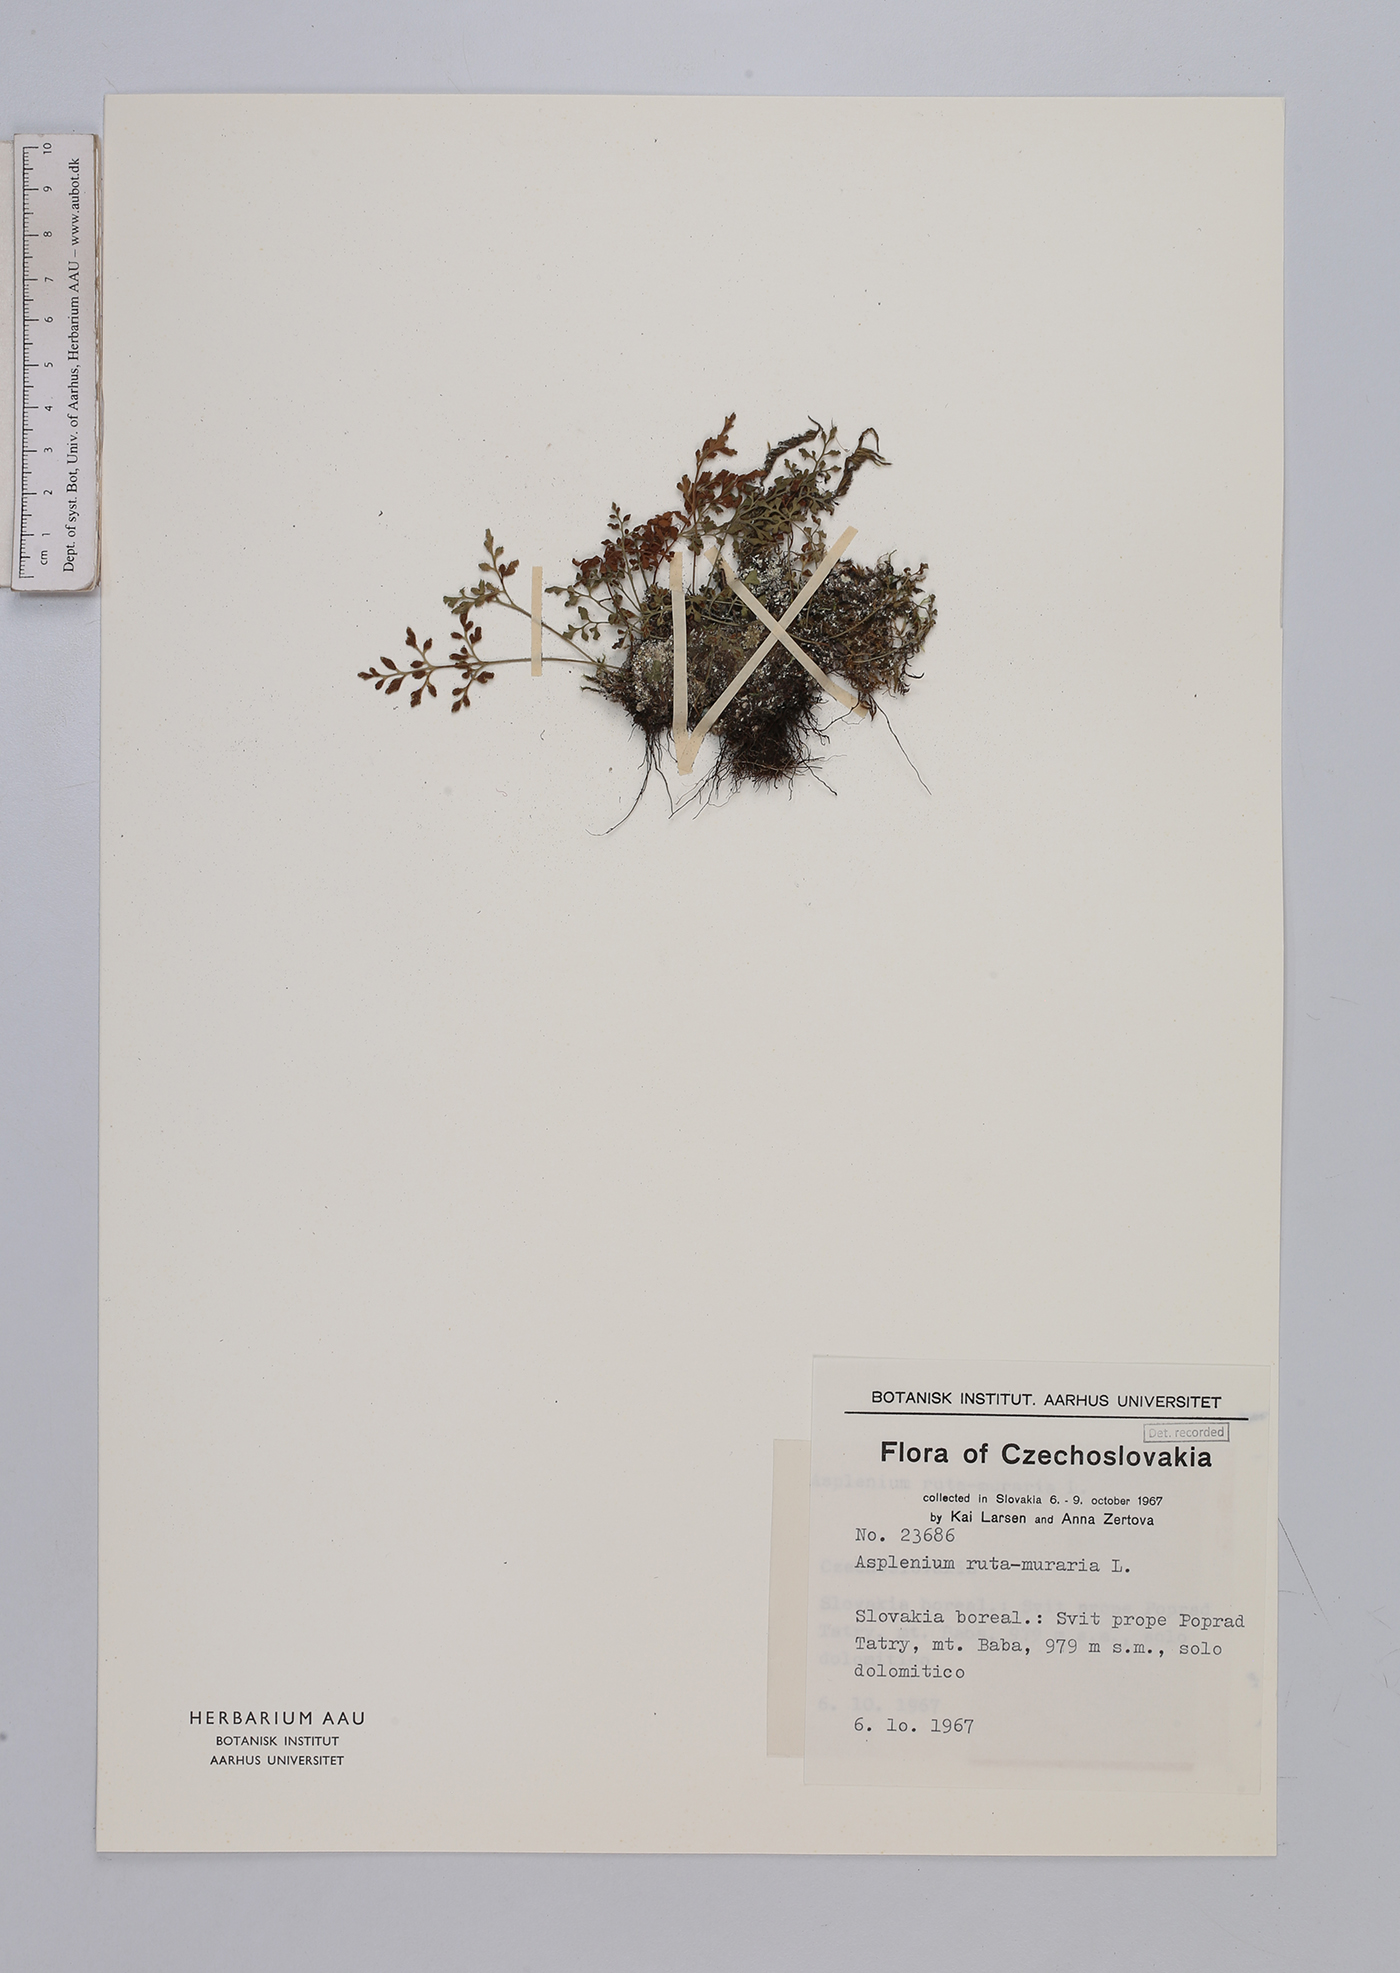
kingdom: Plantae
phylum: Tracheophyta
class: Polypodiopsida
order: Polypodiales
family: Aspleniaceae
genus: Asplenium
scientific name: Asplenium ruta-muraria
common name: Wall-rue
